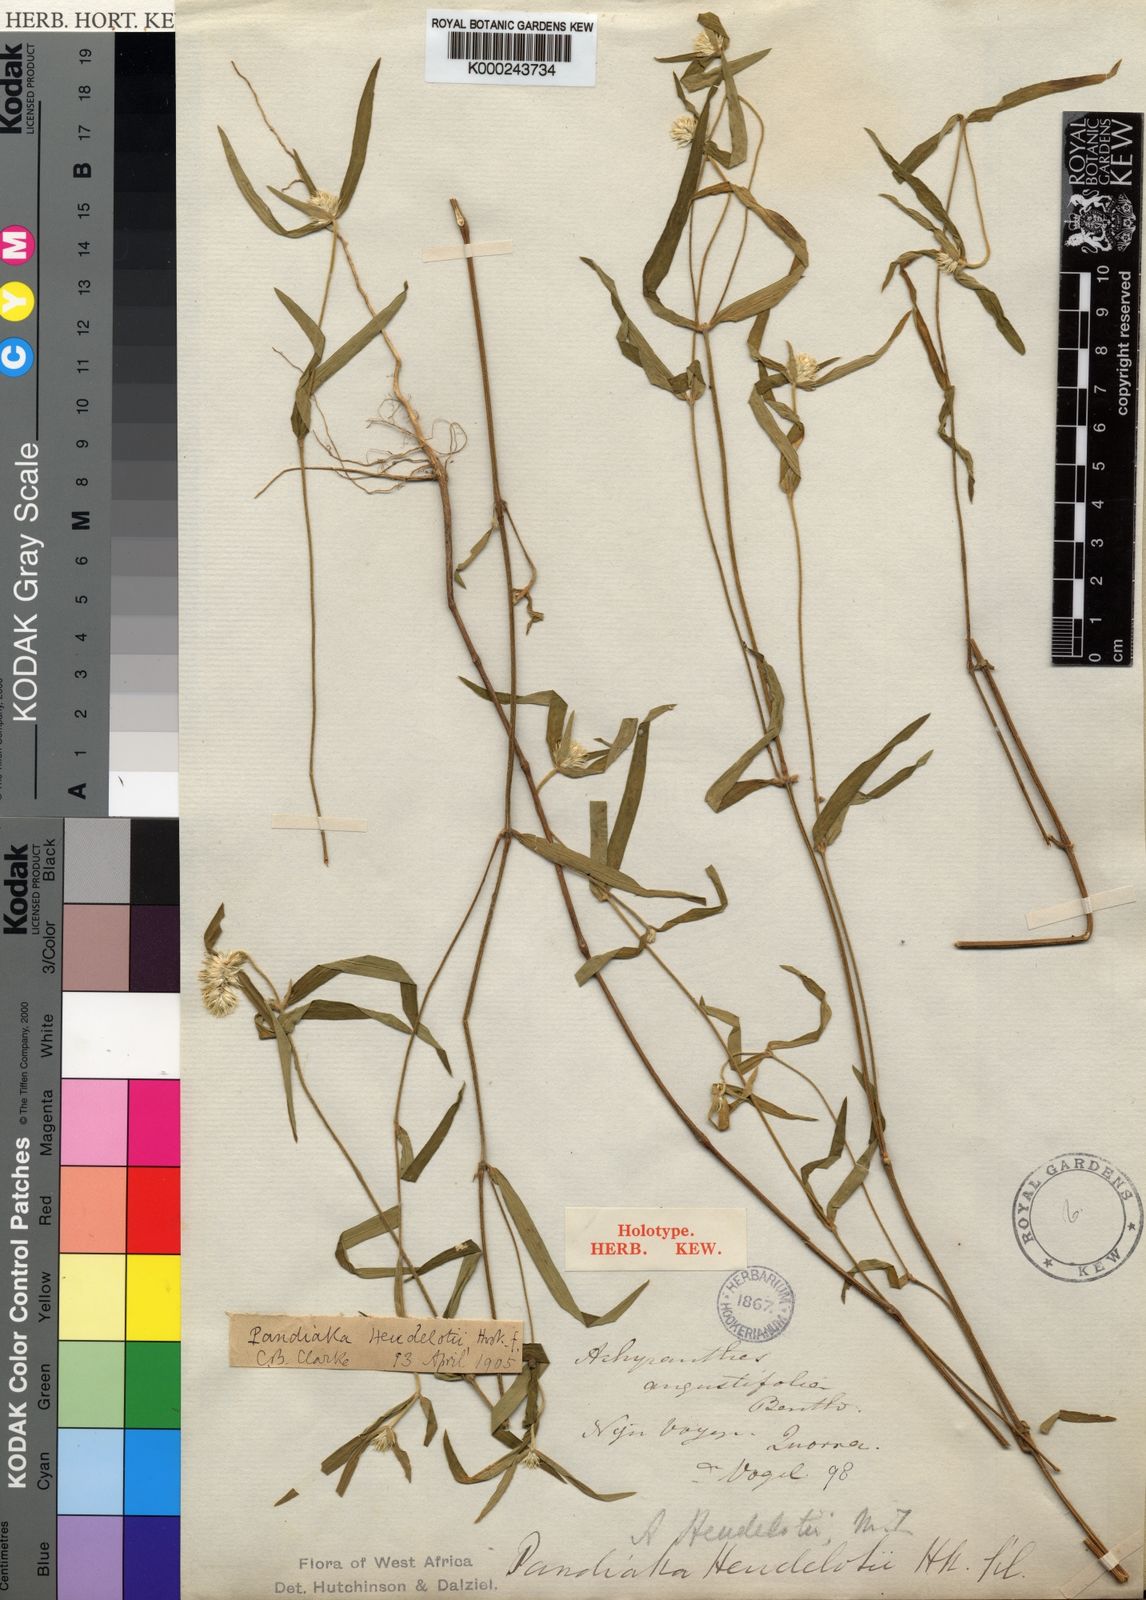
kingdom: Plantae
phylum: Tracheophyta
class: Magnoliopsida
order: Caryophyllales
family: Amaranthaceae
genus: Pandiaka
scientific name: Pandiaka
